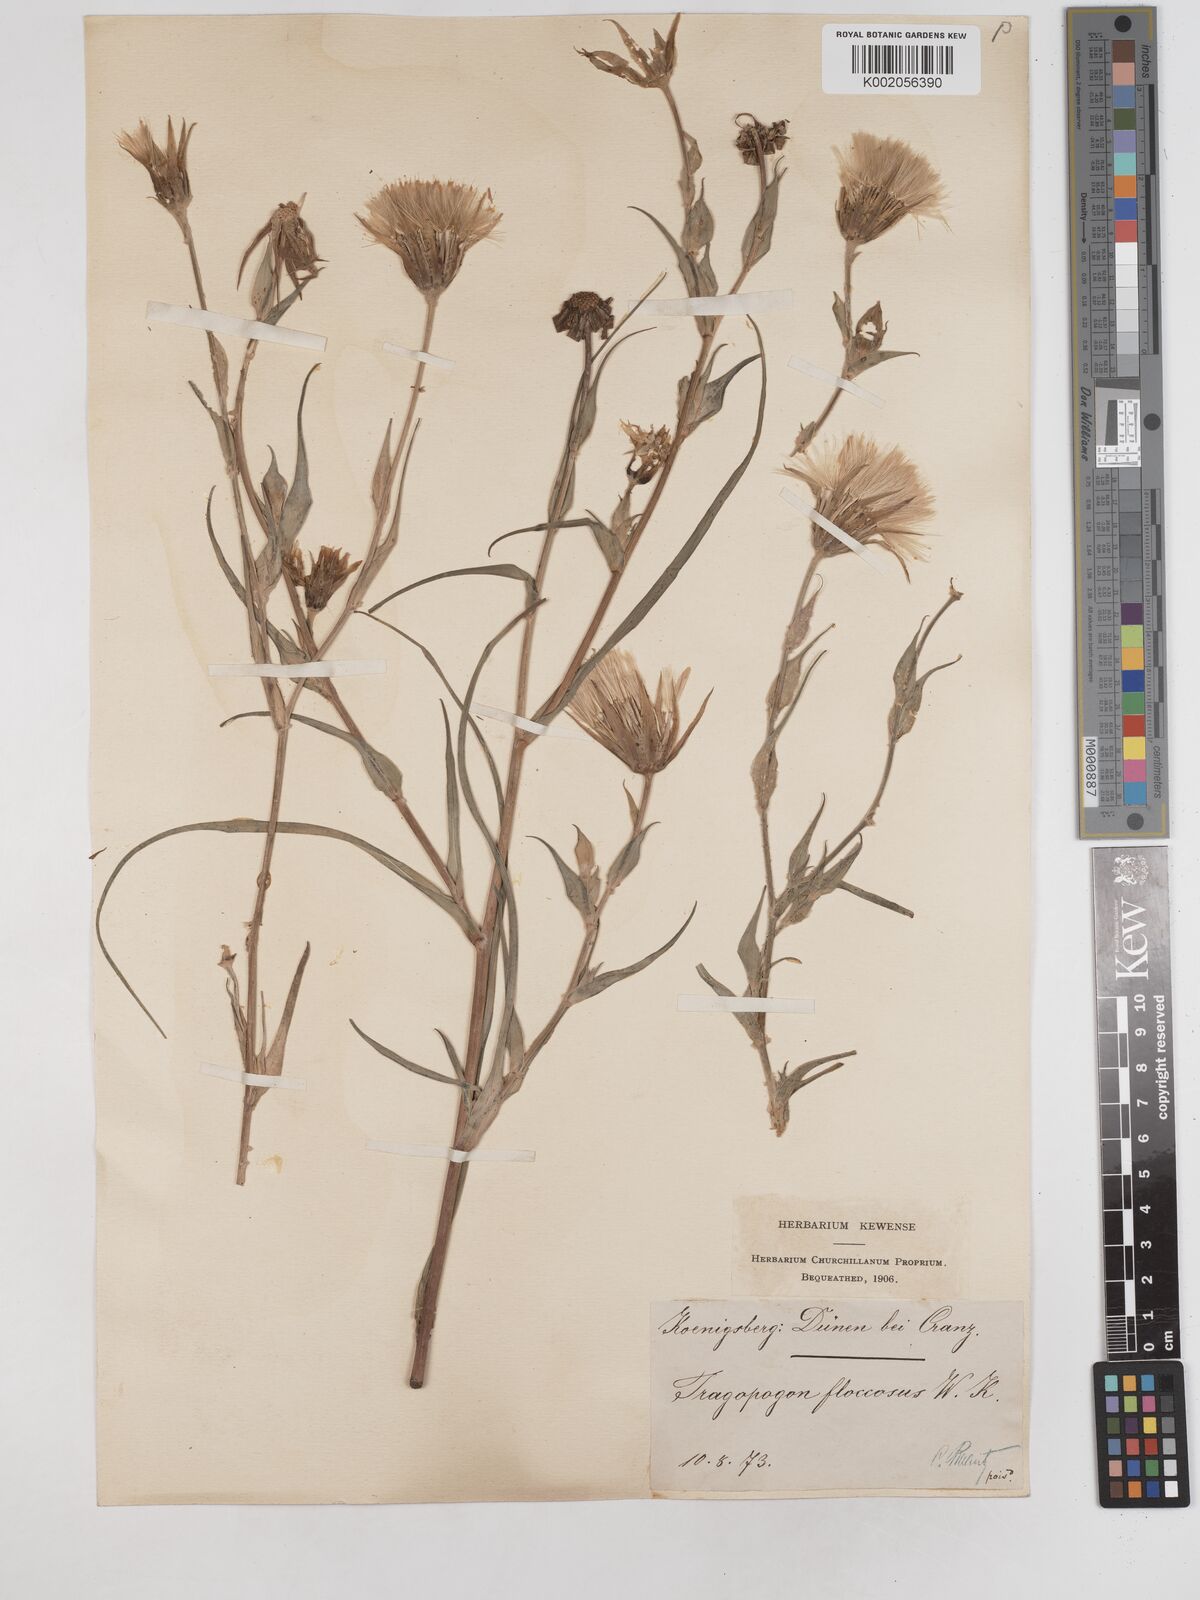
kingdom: Plantae
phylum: Tracheophyta
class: Magnoliopsida
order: Asterales
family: Asteraceae
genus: Tragopogon
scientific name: Tragopogon floccosus
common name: Woolly goatsbeard
